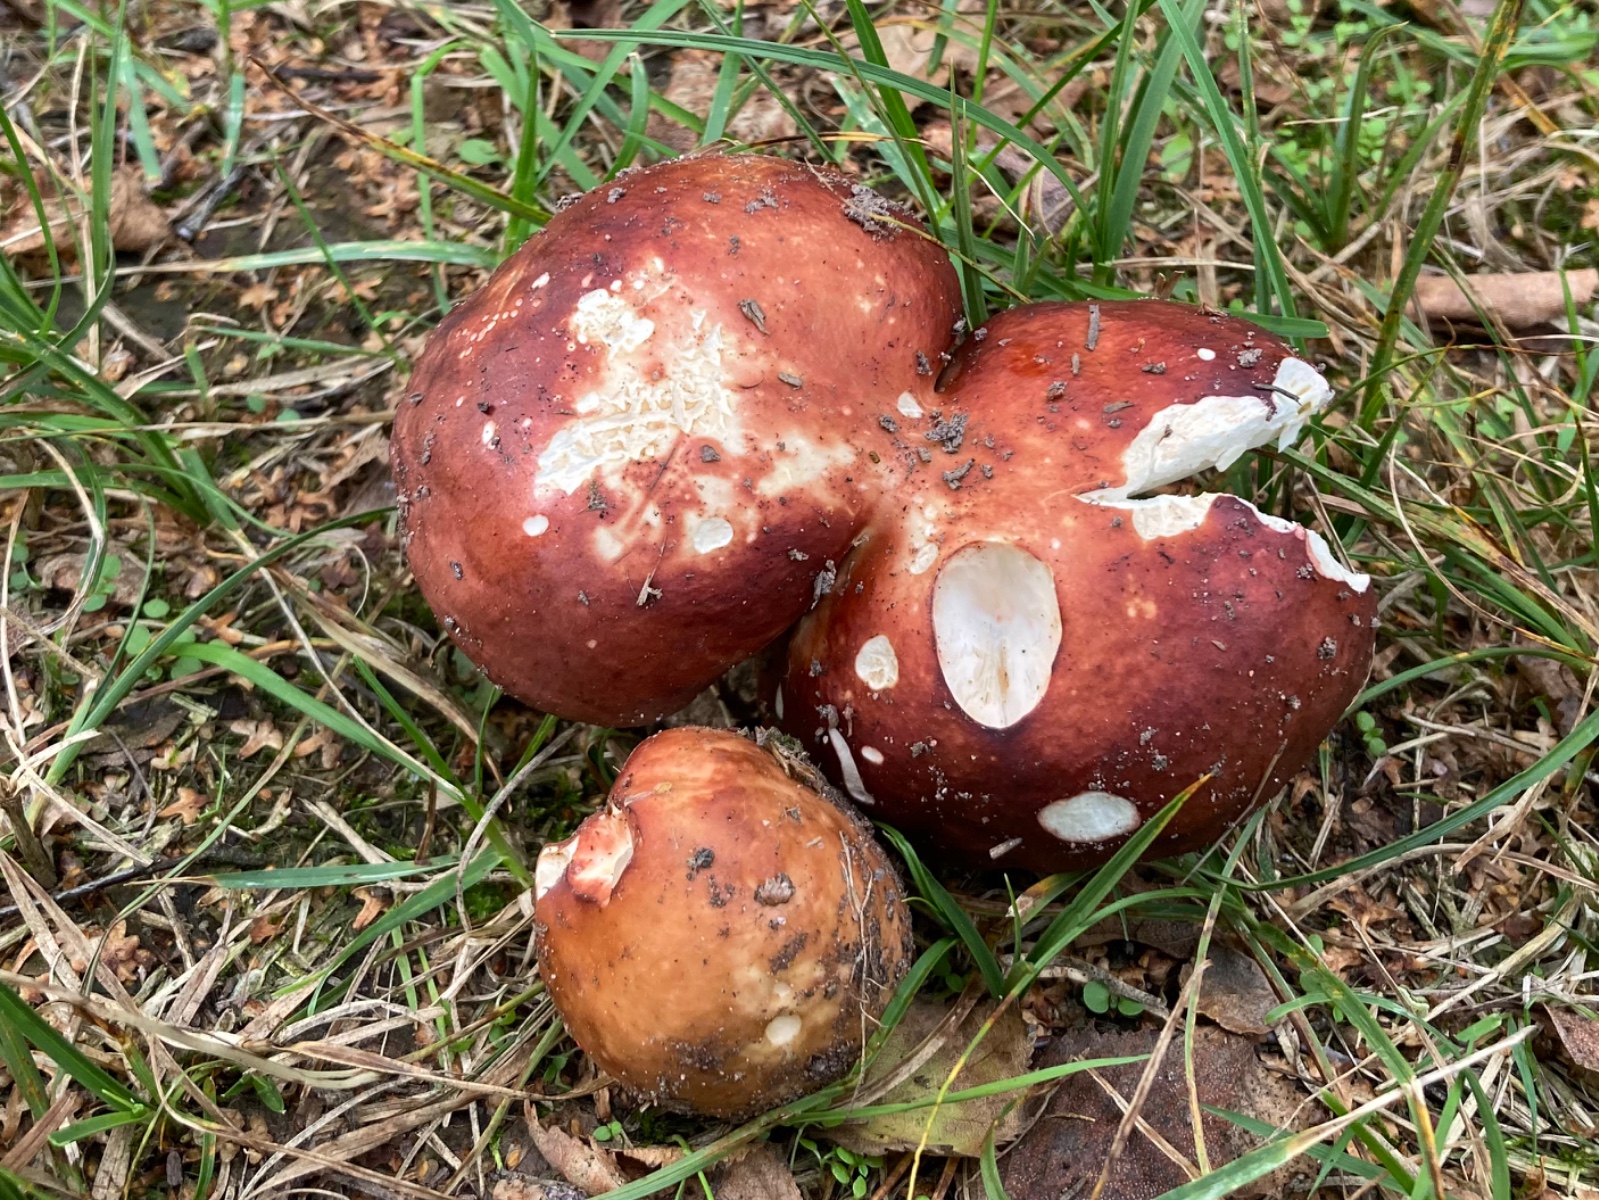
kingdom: Fungi
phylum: Basidiomycota
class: Agaricomycetes
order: Russulales
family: Russulaceae
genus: Russula
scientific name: Russula
